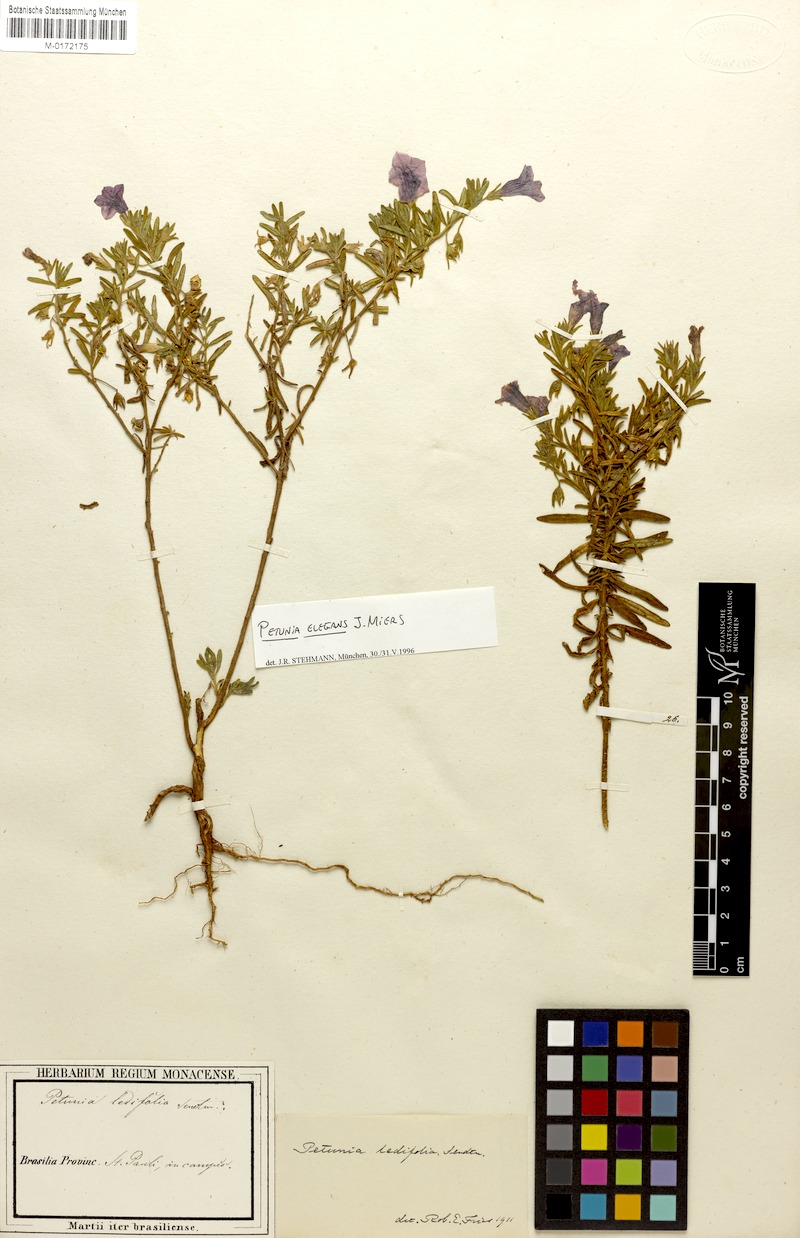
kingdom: Plantae
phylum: Tracheophyta
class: Magnoliopsida
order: Solanales
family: Solanaceae
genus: Calibrachoa
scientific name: Calibrachoa elegans
